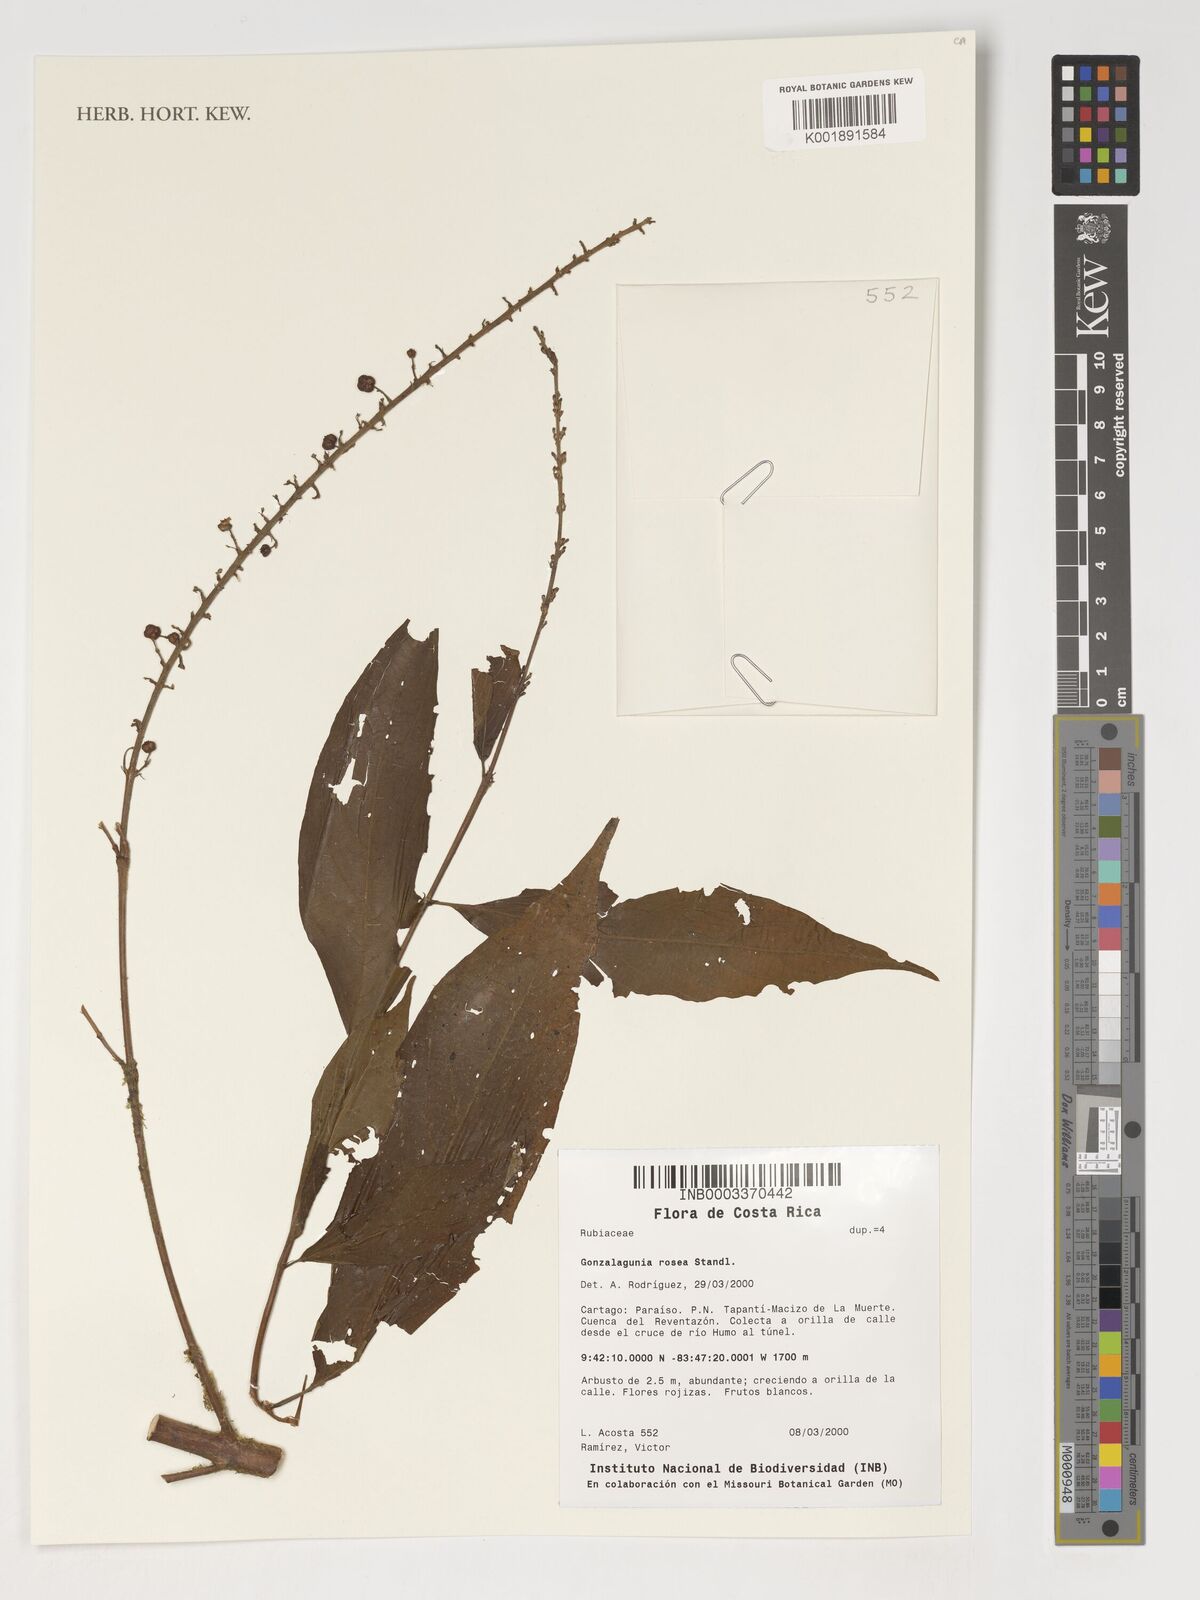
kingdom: Plantae
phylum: Tracheophyta
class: Magnoliopsida
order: Gentianales
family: Rubiaceae
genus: Gonzalagunia
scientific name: Gonzalagunia rosea
